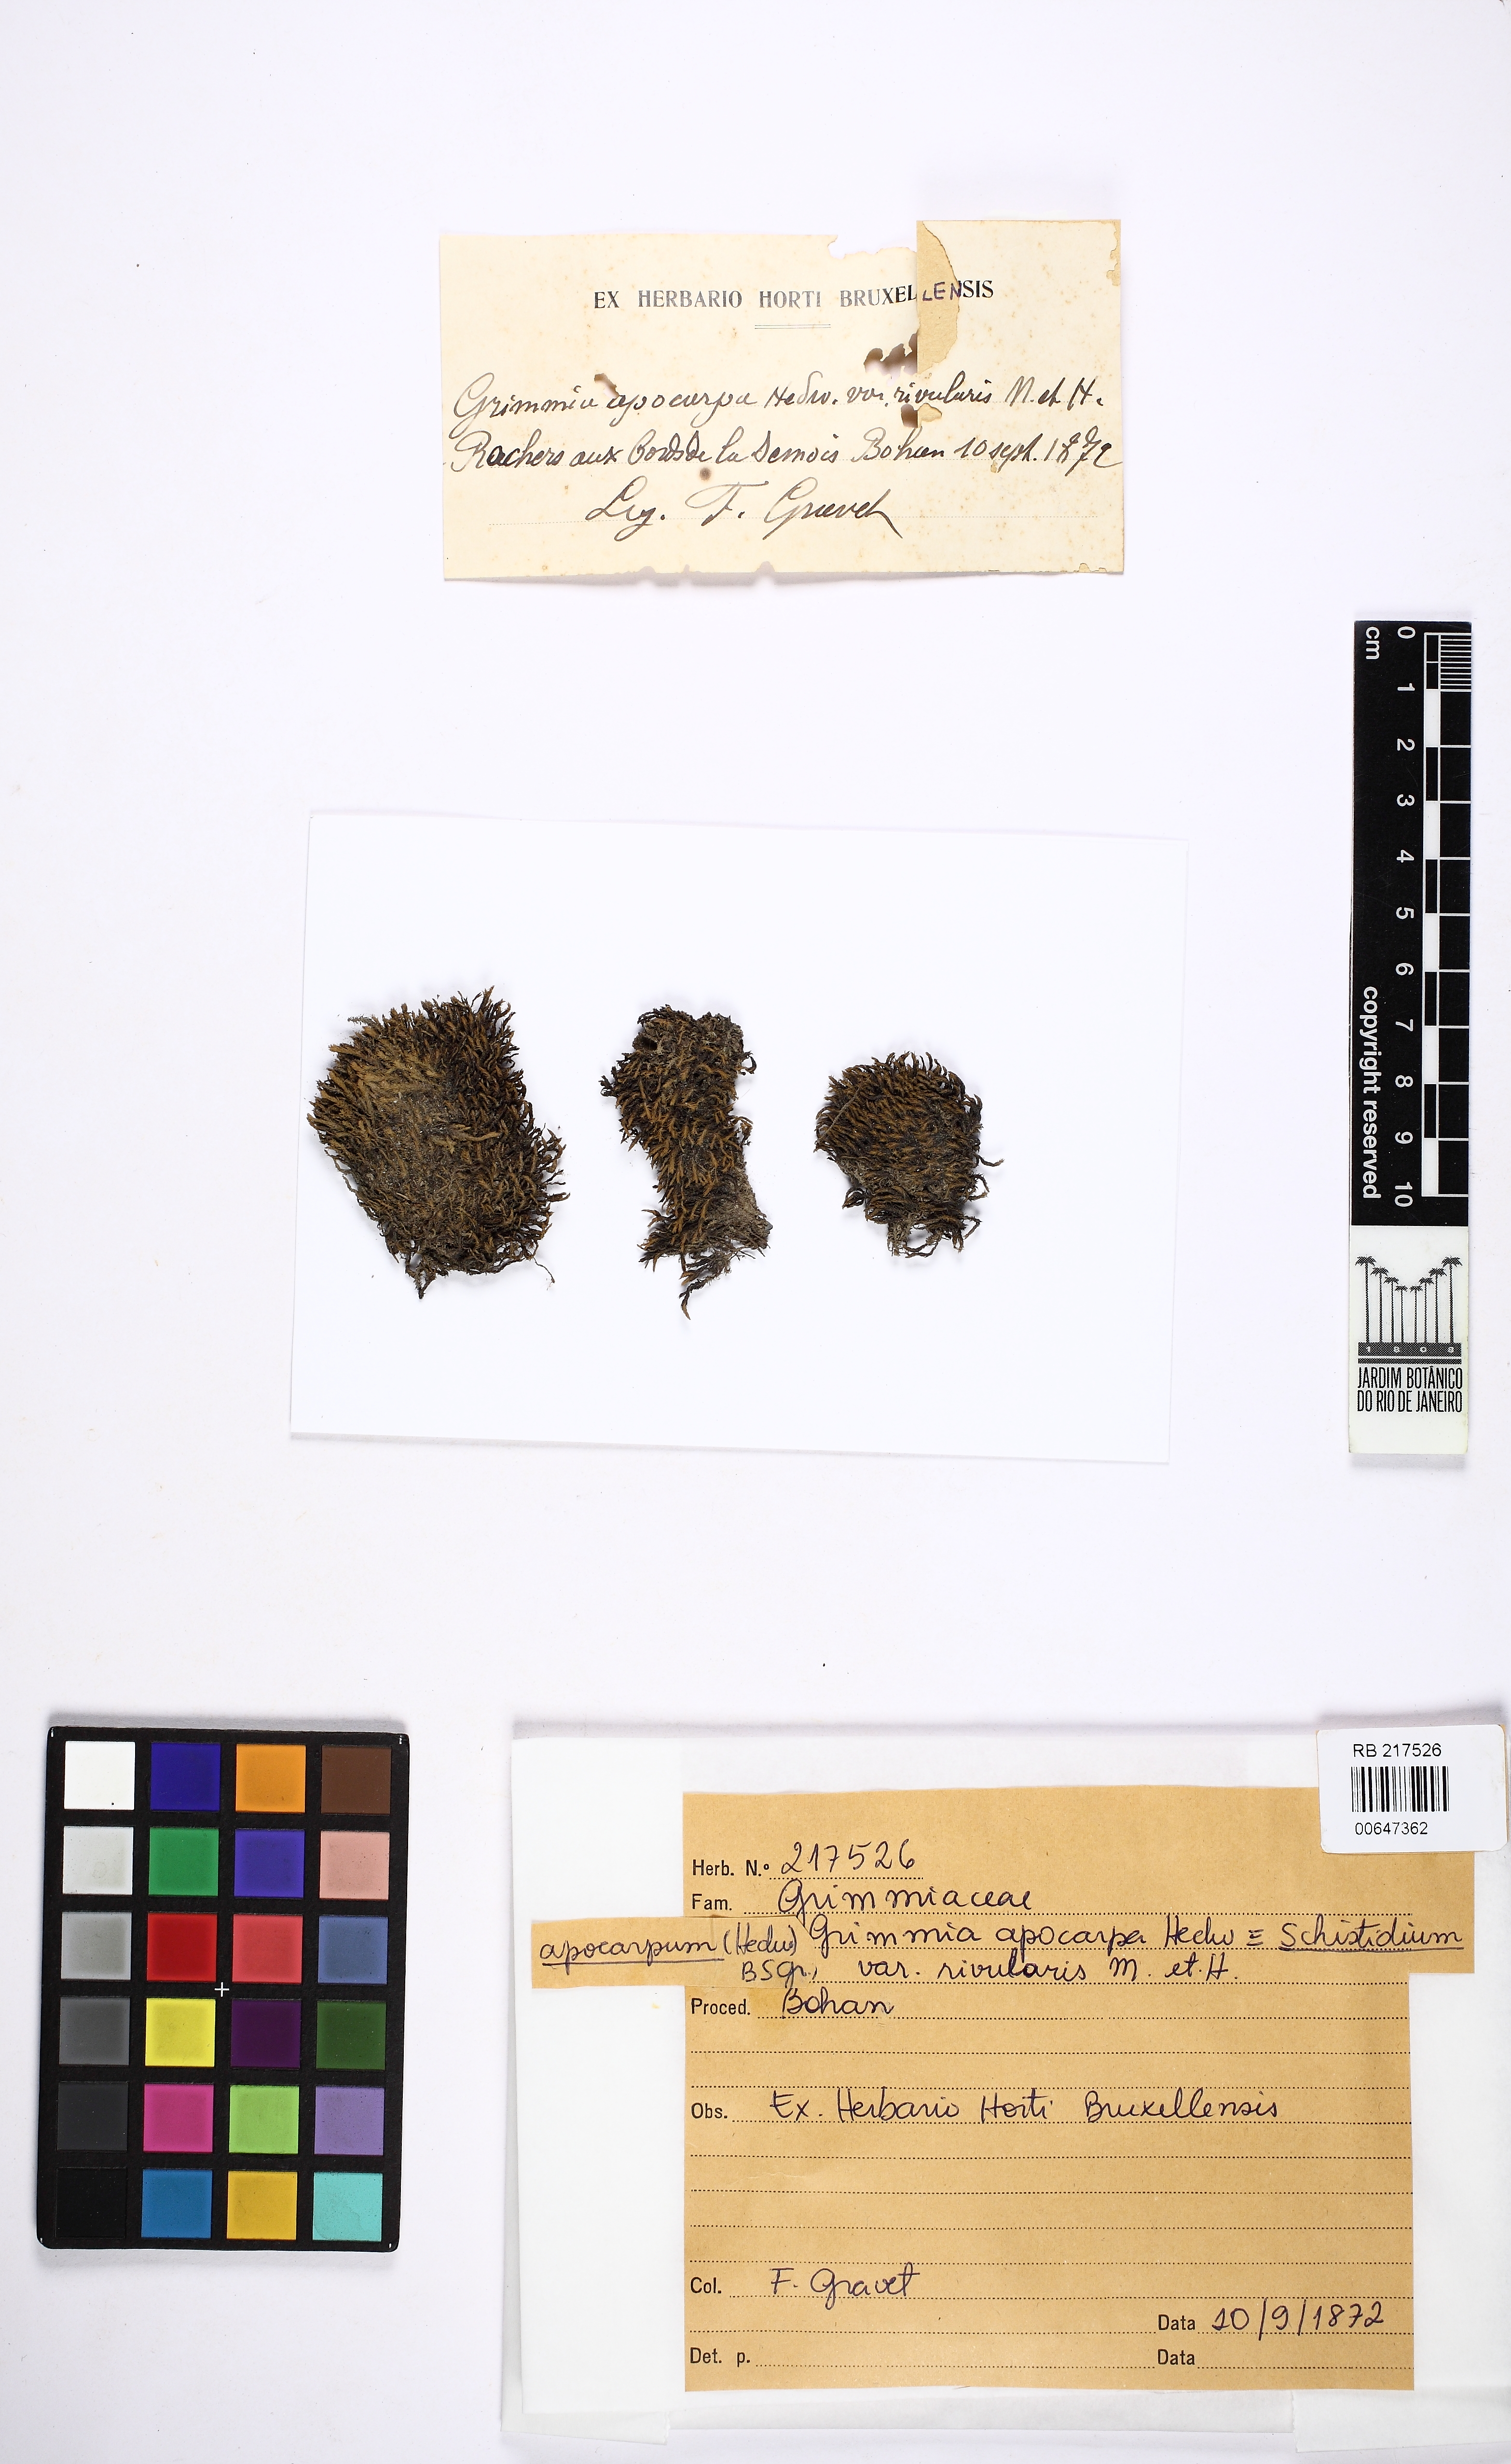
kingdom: Plantae
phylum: Bryophyta
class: Bryopsida
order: Grimmiales
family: Grimmiaceae
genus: Schistidium
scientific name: Schistidium apocarpum
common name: Radiate bloom moss
